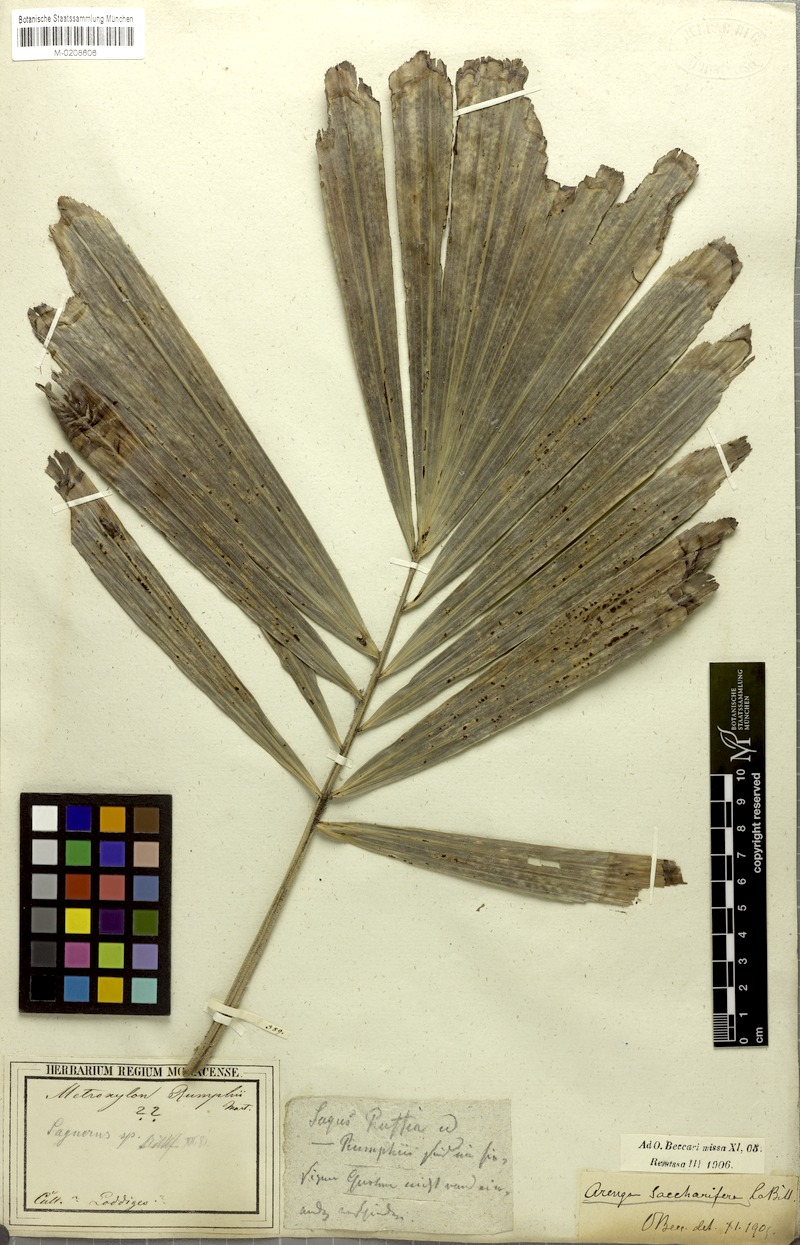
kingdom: Plantae
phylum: Tracheophyta
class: Liliopsida
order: Arecales
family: Arecaceae
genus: Arenga
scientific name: Arenga pinnata
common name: Black-fiber palm
